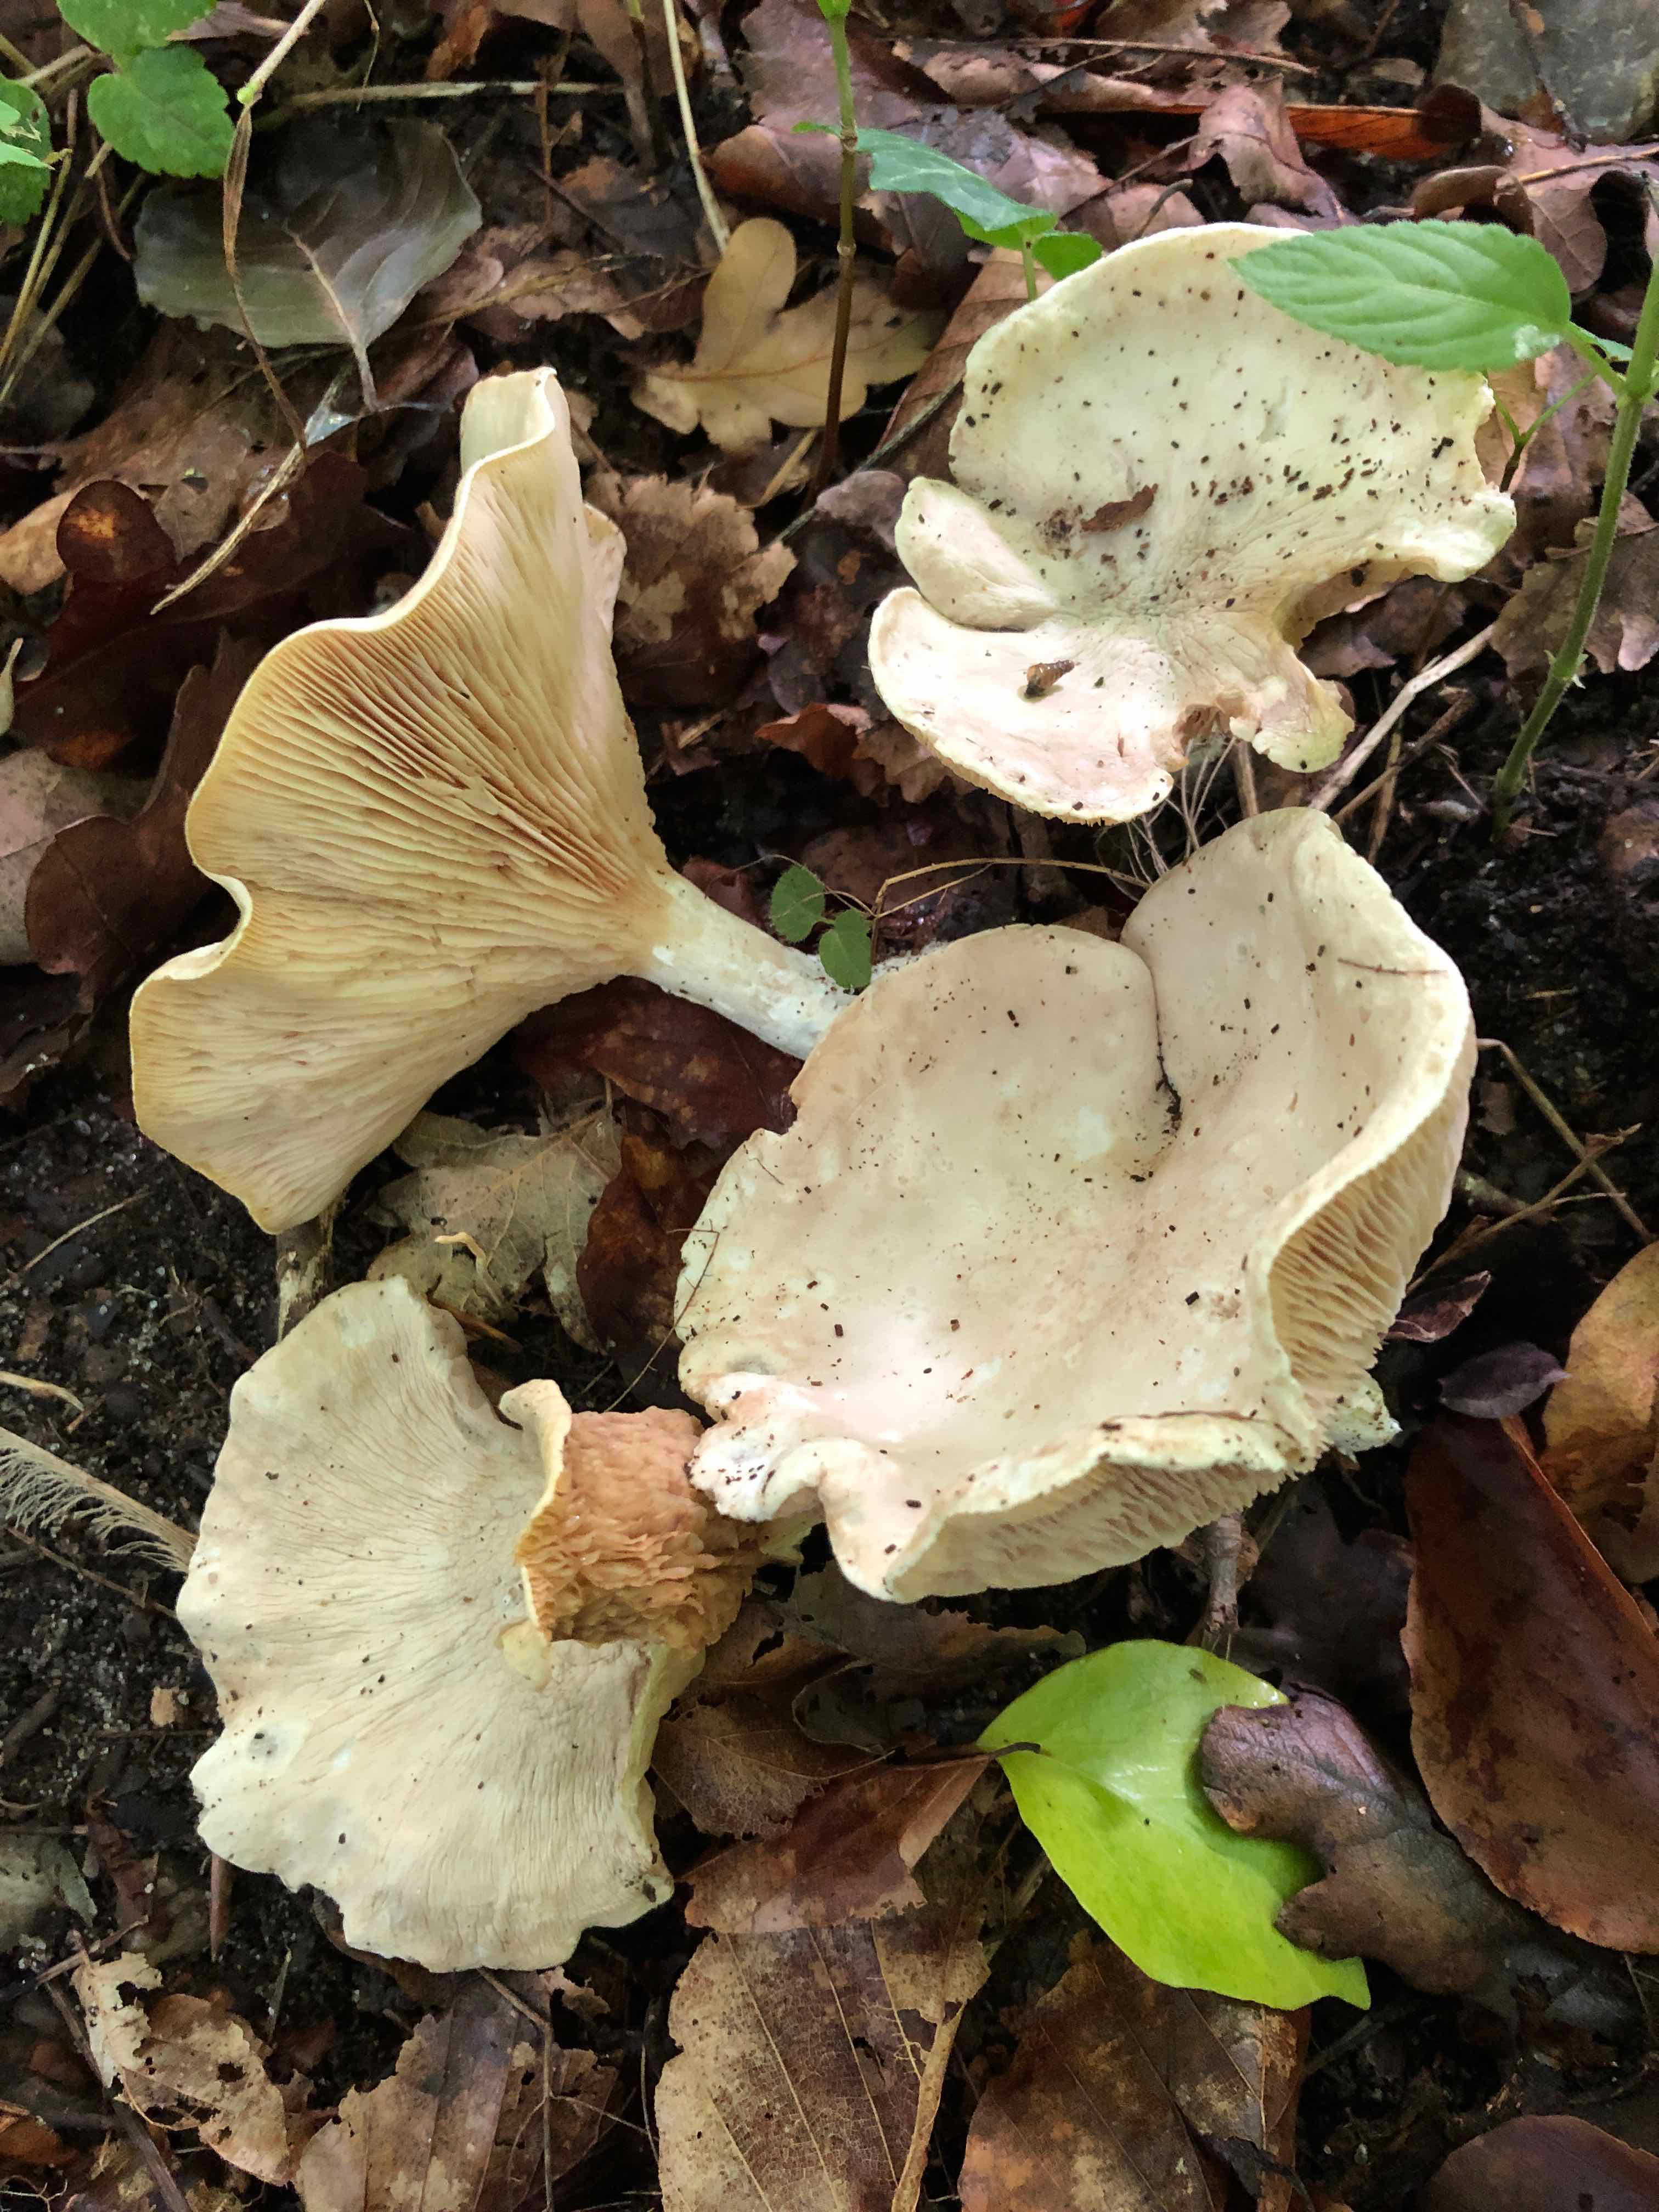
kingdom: Fungi
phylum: Basidiomycota
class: Agaricomycetes
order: Agaricales
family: Entolomataceae
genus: Clitopilus
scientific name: Clitopilus prunulus
